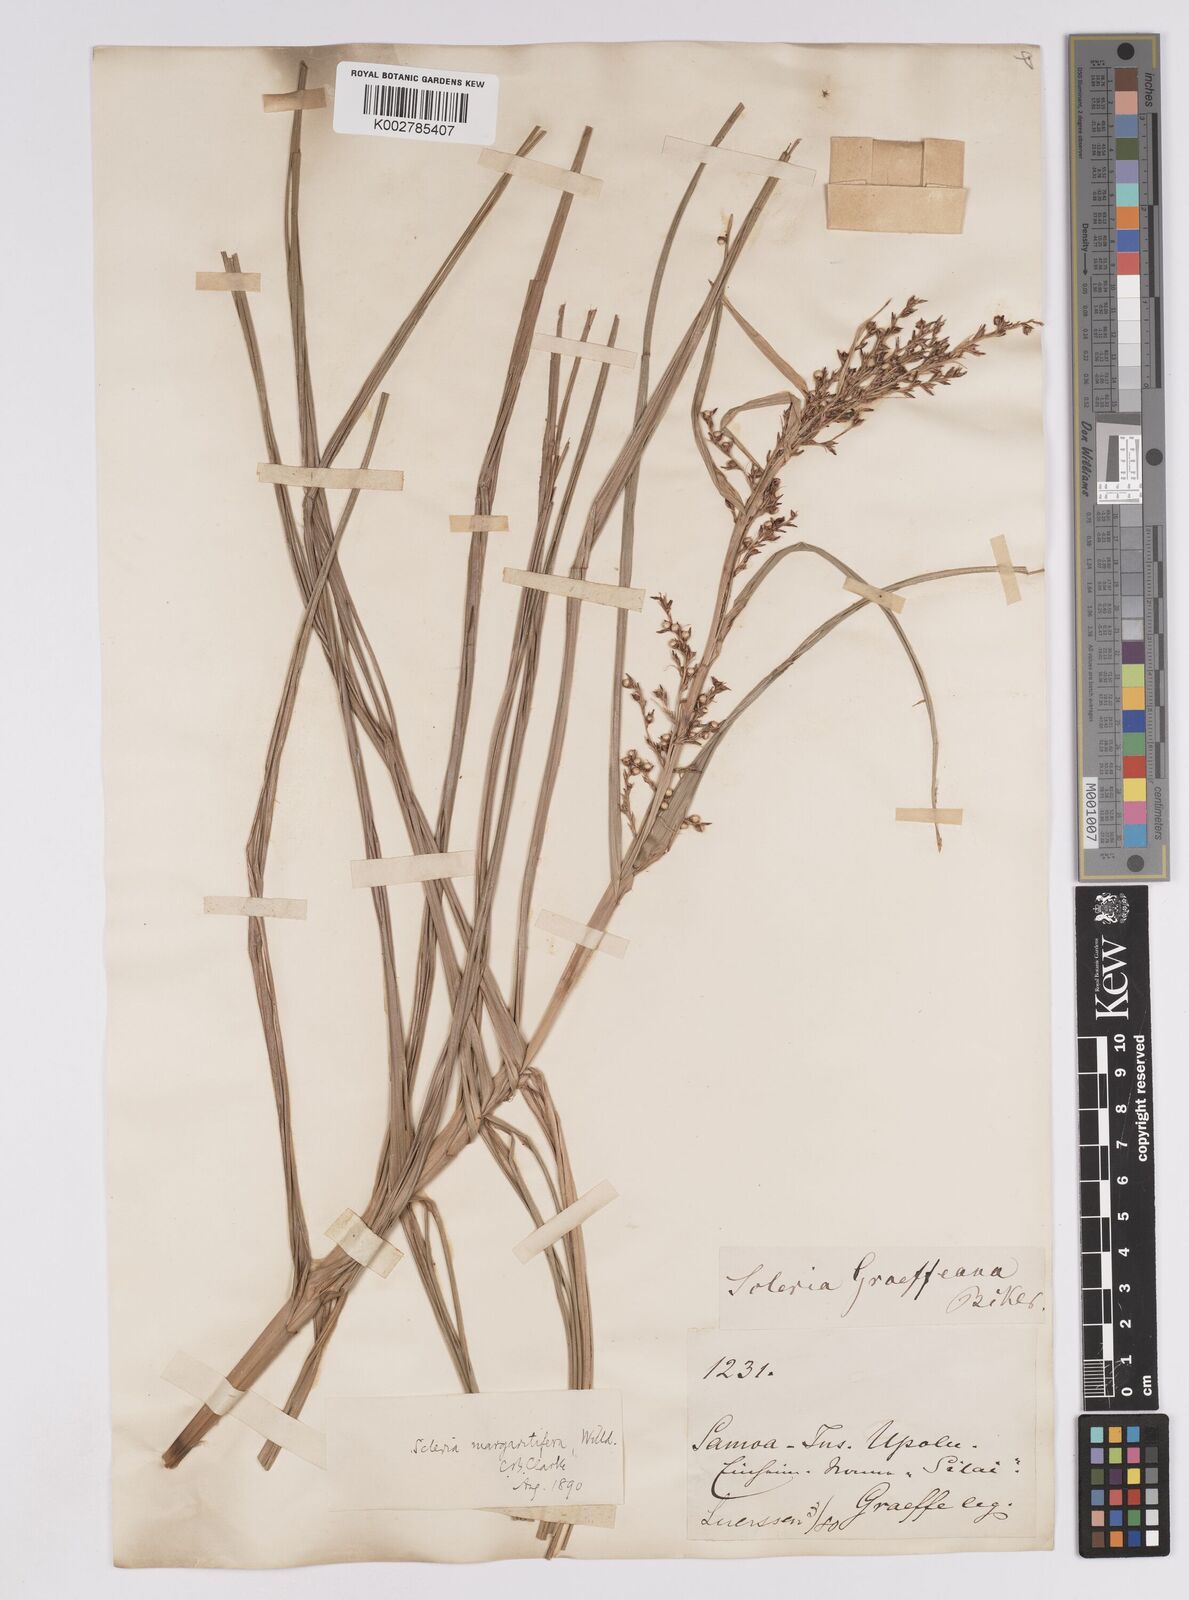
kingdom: Plantae
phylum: Tracheophyta
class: Liliopsida
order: Poales
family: Cyperaceae
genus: Scleria
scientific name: Scleria polycarpa
